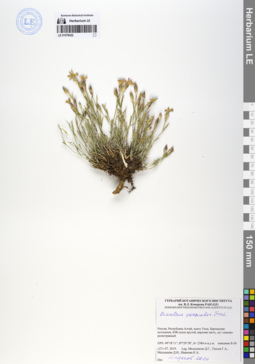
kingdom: Plantae
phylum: Tracheophyta
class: Magnoliopsida
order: Caryophyllales
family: Caryophyllaceae
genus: Dianthus
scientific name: Dianthus chinensis
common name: Rainbow pink
